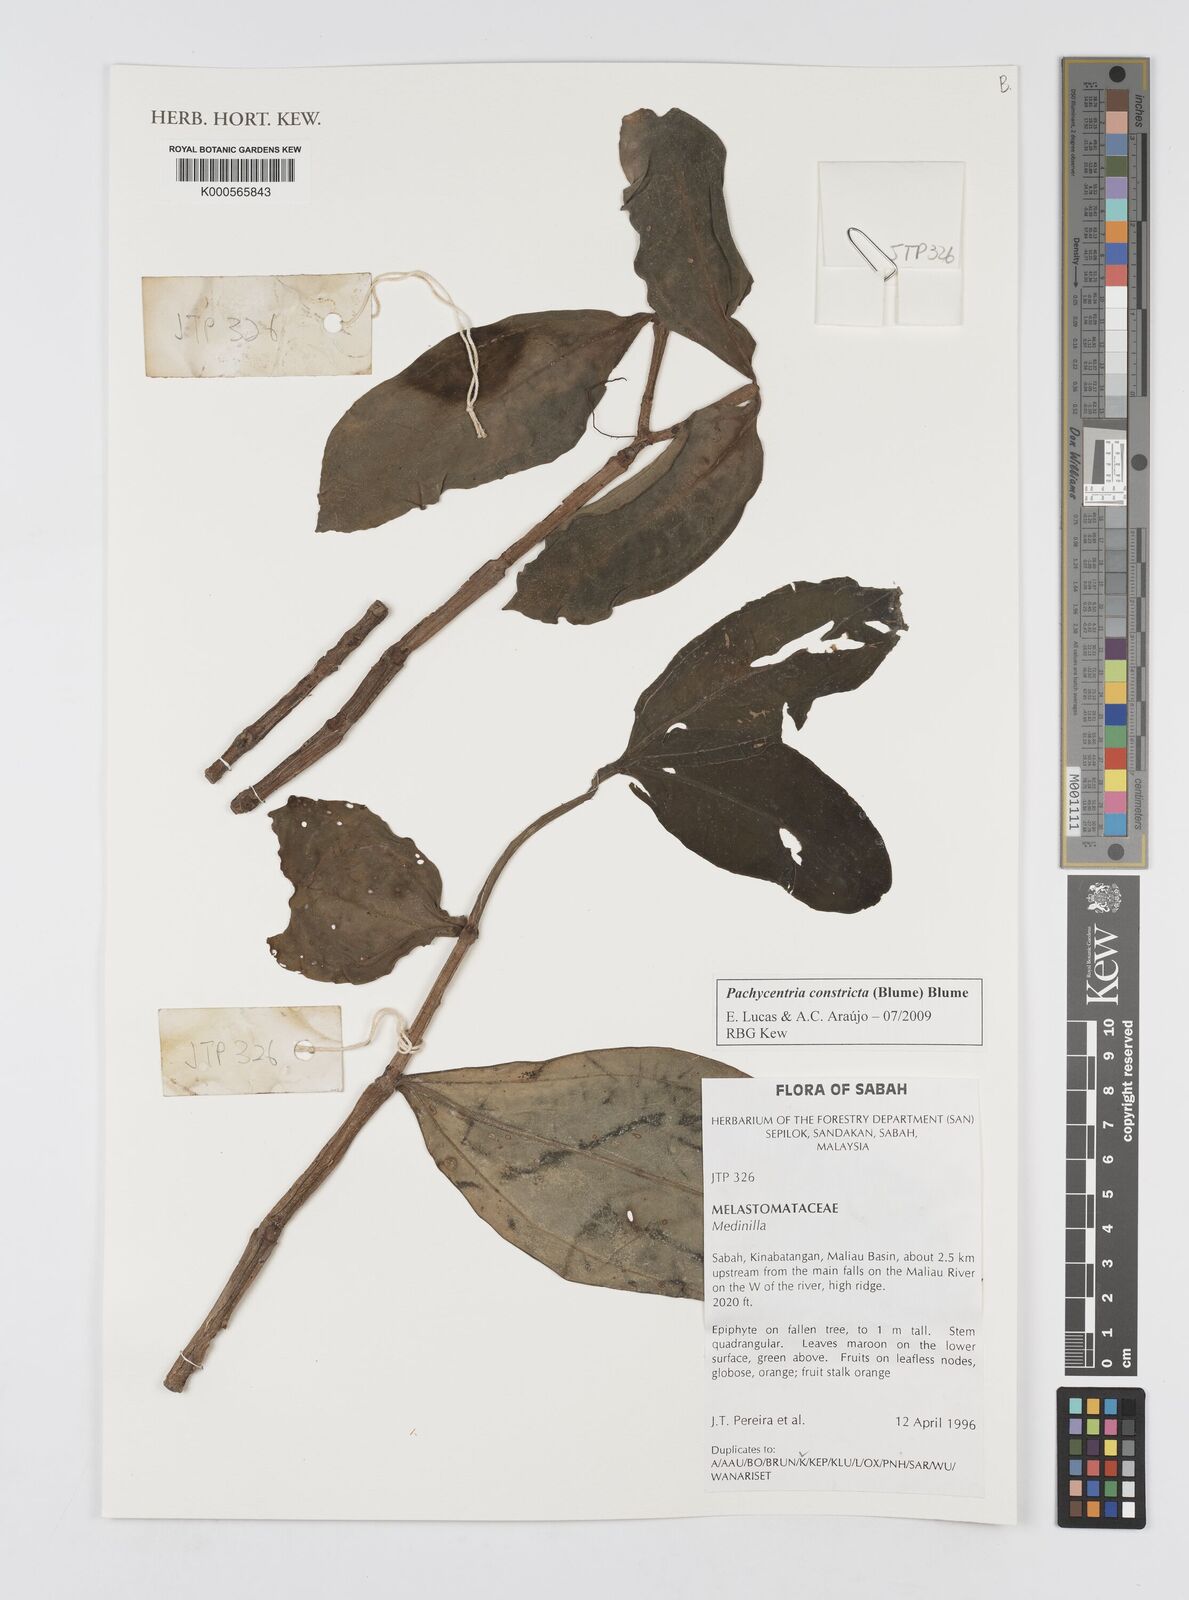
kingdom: Plantae
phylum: Tracheophyta
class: Magnoliopsida
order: Myrtales
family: Melastomataceae
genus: Pachycentria
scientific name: Pachycentria constricta
